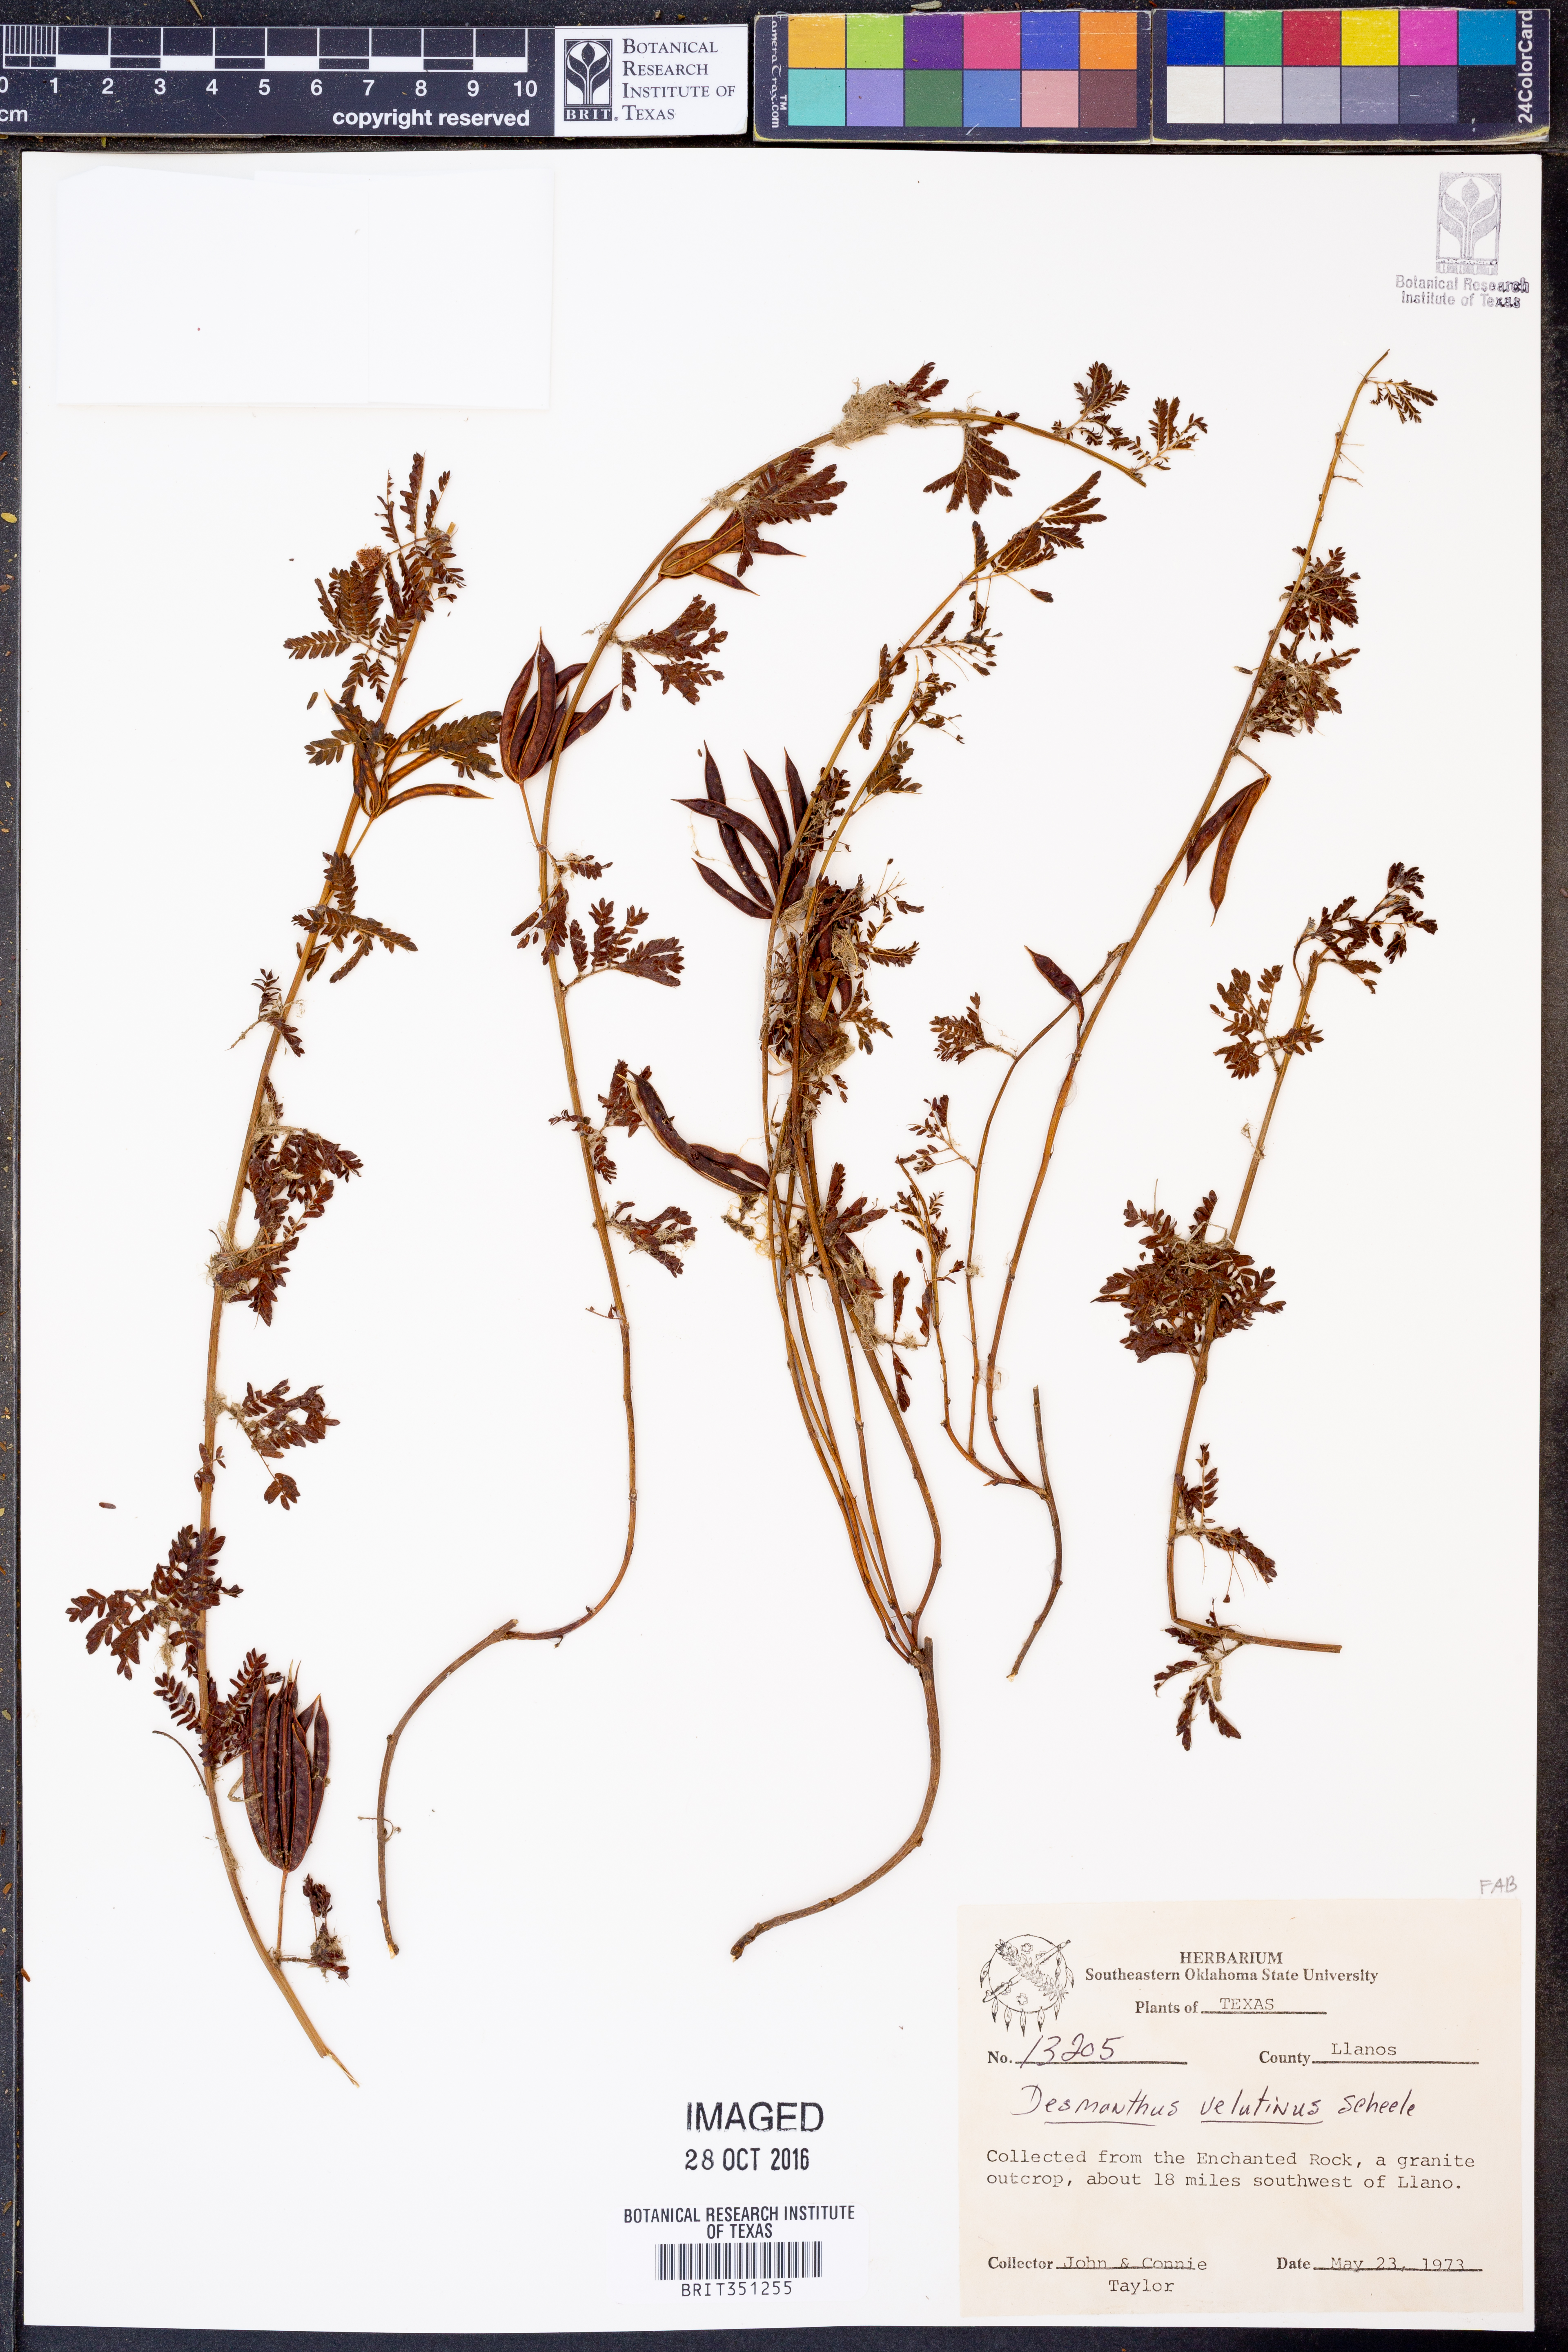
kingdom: Plantae
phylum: Tracheophyta
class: Magnoliopsida
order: Fabales
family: Fabaceae
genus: Desmanthus
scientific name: Desmanthus velutinus
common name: Velvet bundle-flower
